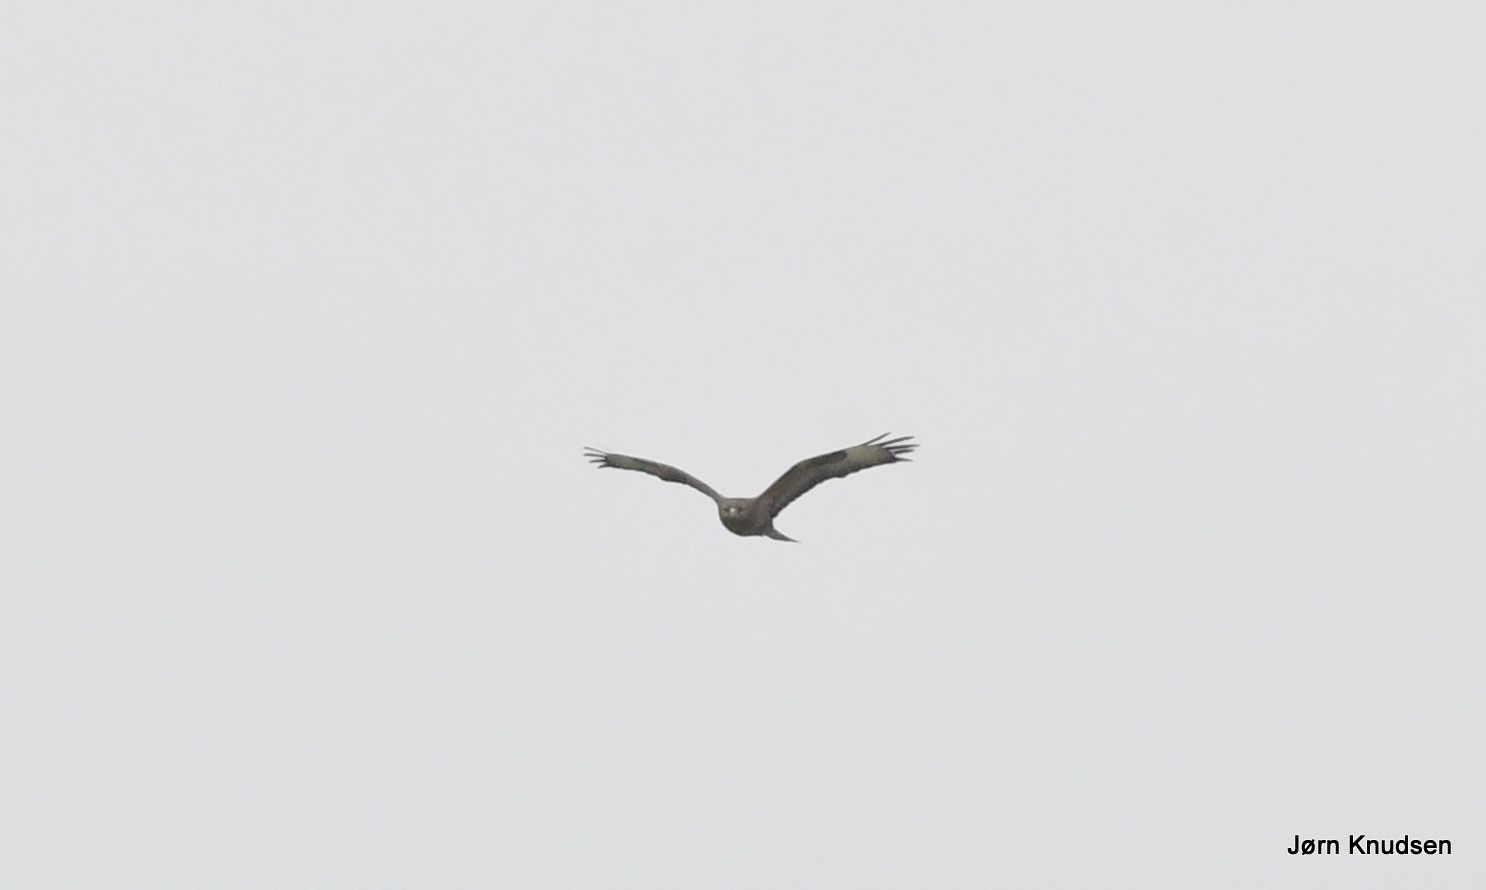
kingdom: Animalia
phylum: Chordata
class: Aves
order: Accipitriformes
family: Accipitridae
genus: Buteo
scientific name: Buteo buteo
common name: Musvåge
